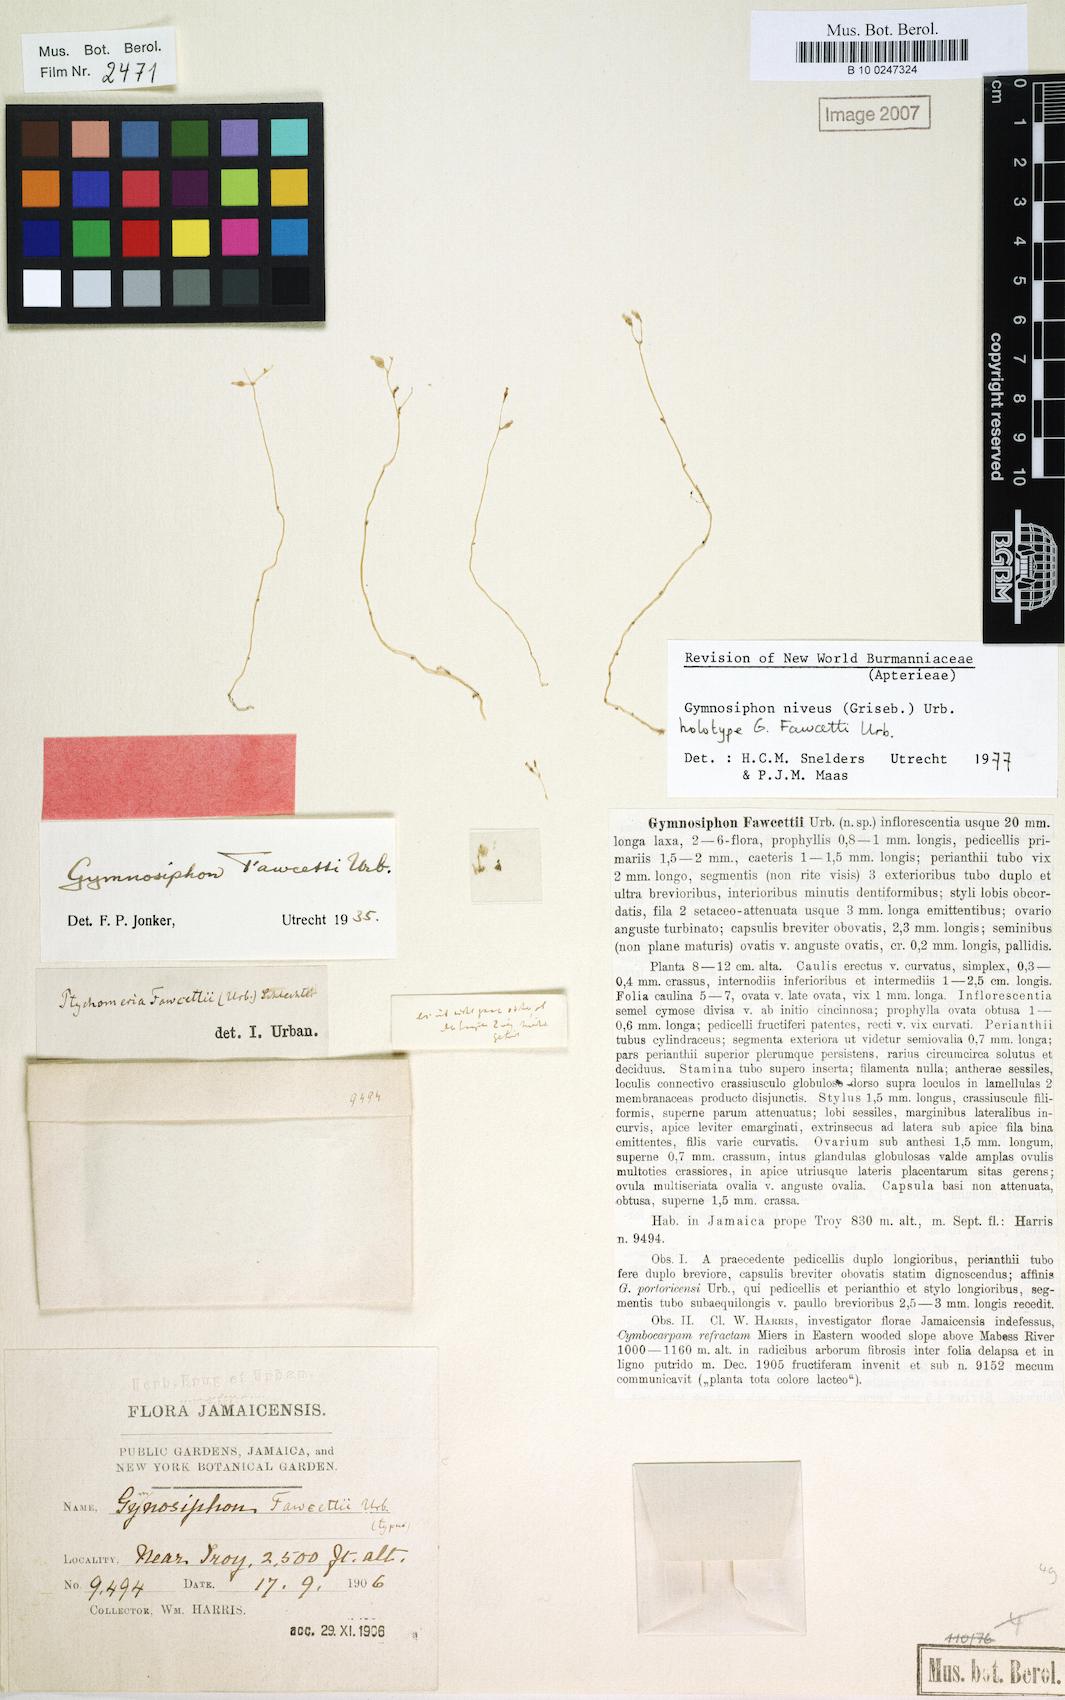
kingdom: Plantae
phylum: Tracheophyta
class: Liliopsida
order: Dioscoreales
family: Burmanniaceae
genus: Gymnosiphon
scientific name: Gymnosiphon niveus
